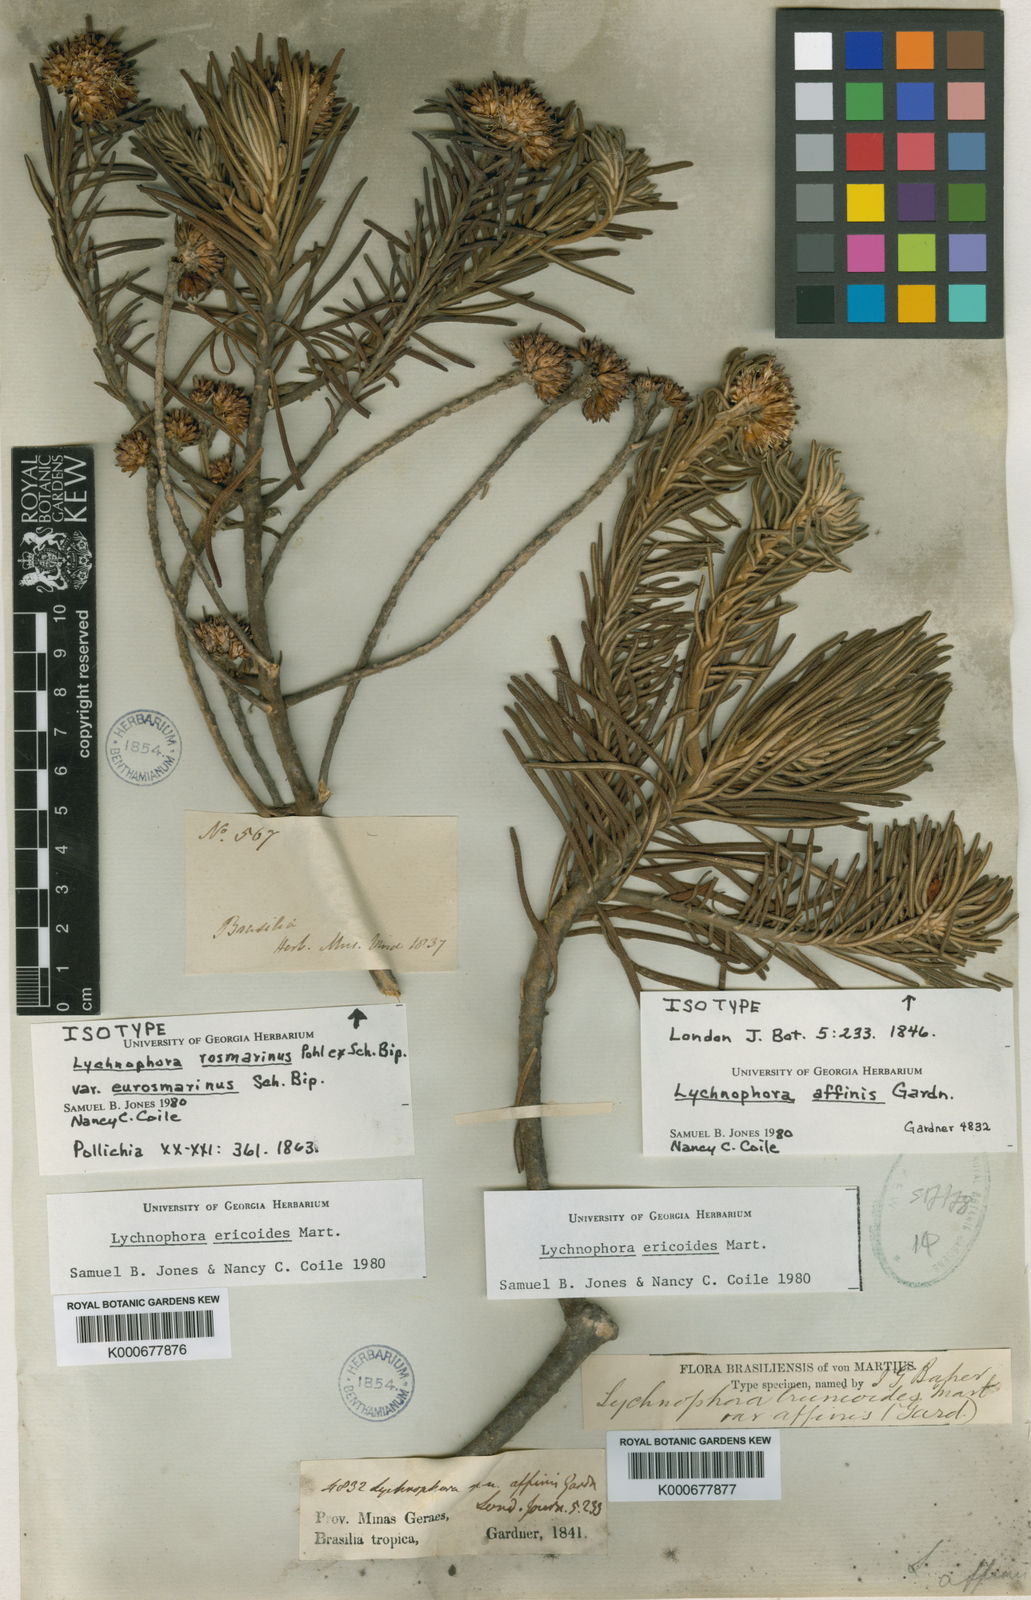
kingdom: Plantae
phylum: Tracheophyta
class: Magnoliopsida
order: Asterales
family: Asteraceae
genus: Lychnophora
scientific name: Lychnophora ericoides
